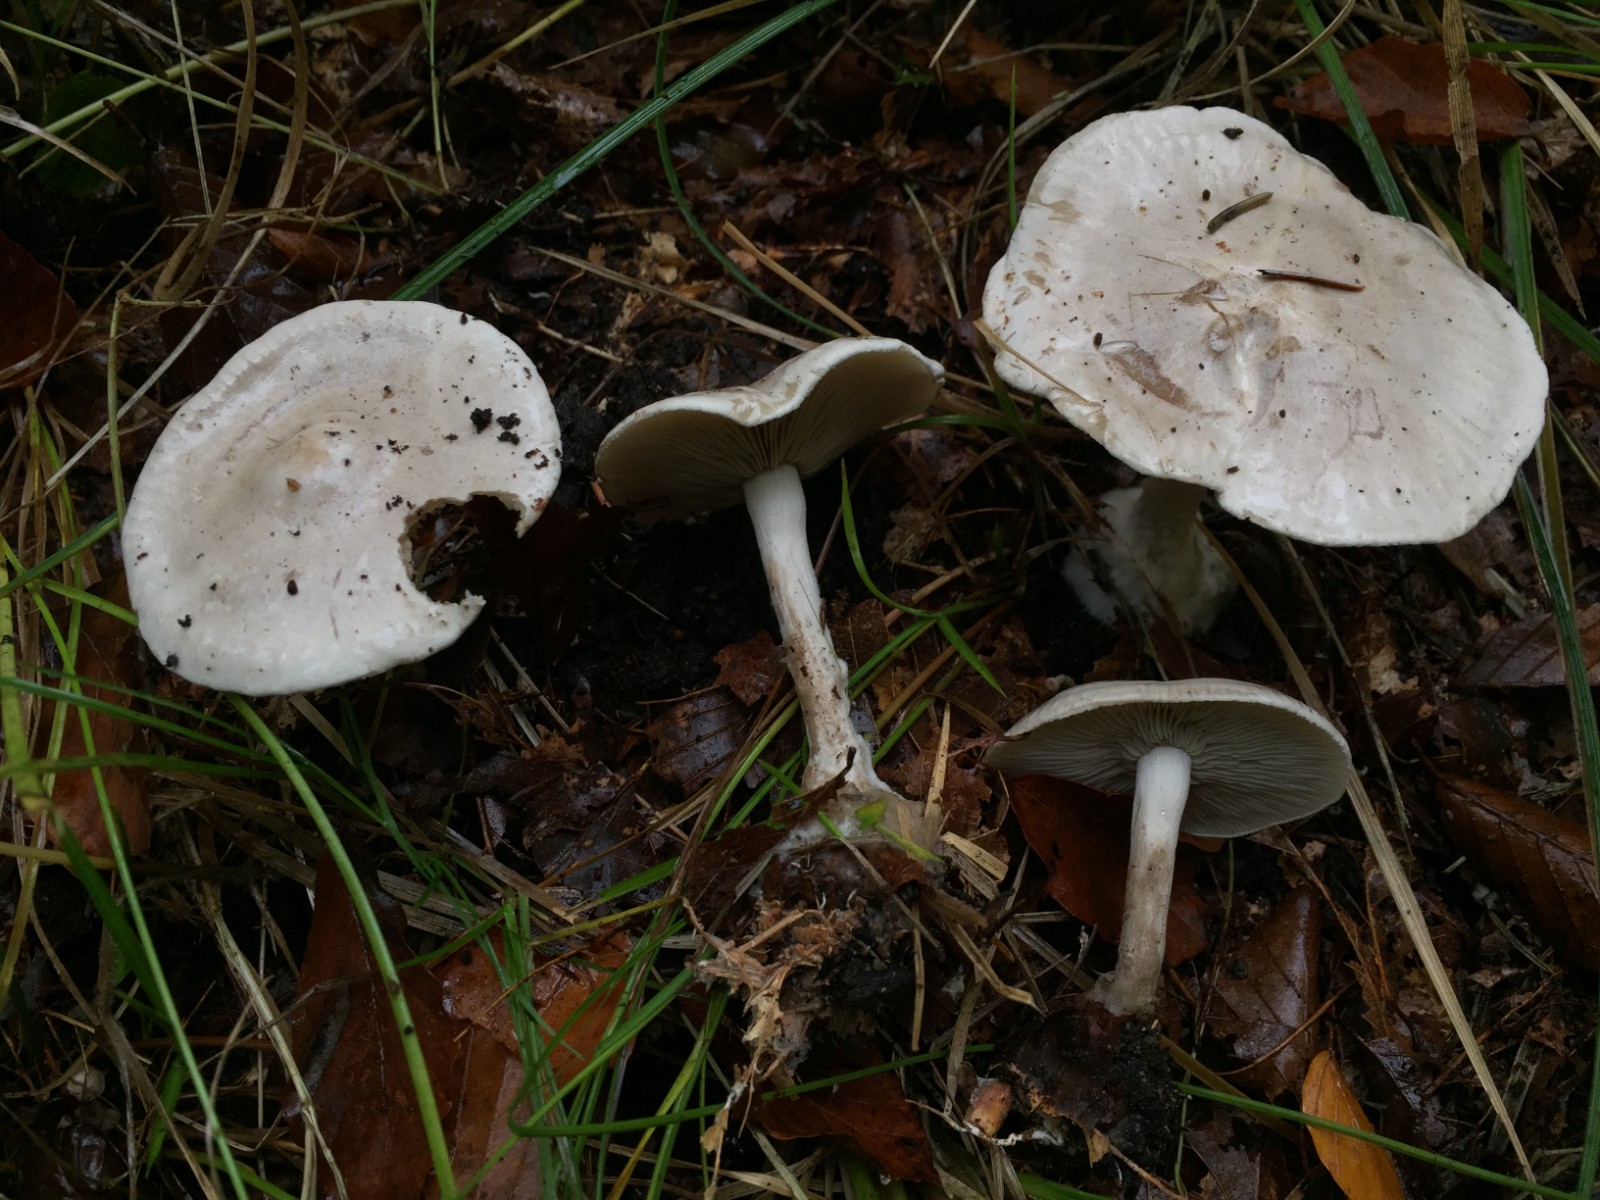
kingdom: Fungi
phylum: Basidiomycota
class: Agaricomycetes
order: Agaricales
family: Tricholomataceae
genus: Atractosporocybe
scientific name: Atractosporocybe inornata
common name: filtstokket tragthat
